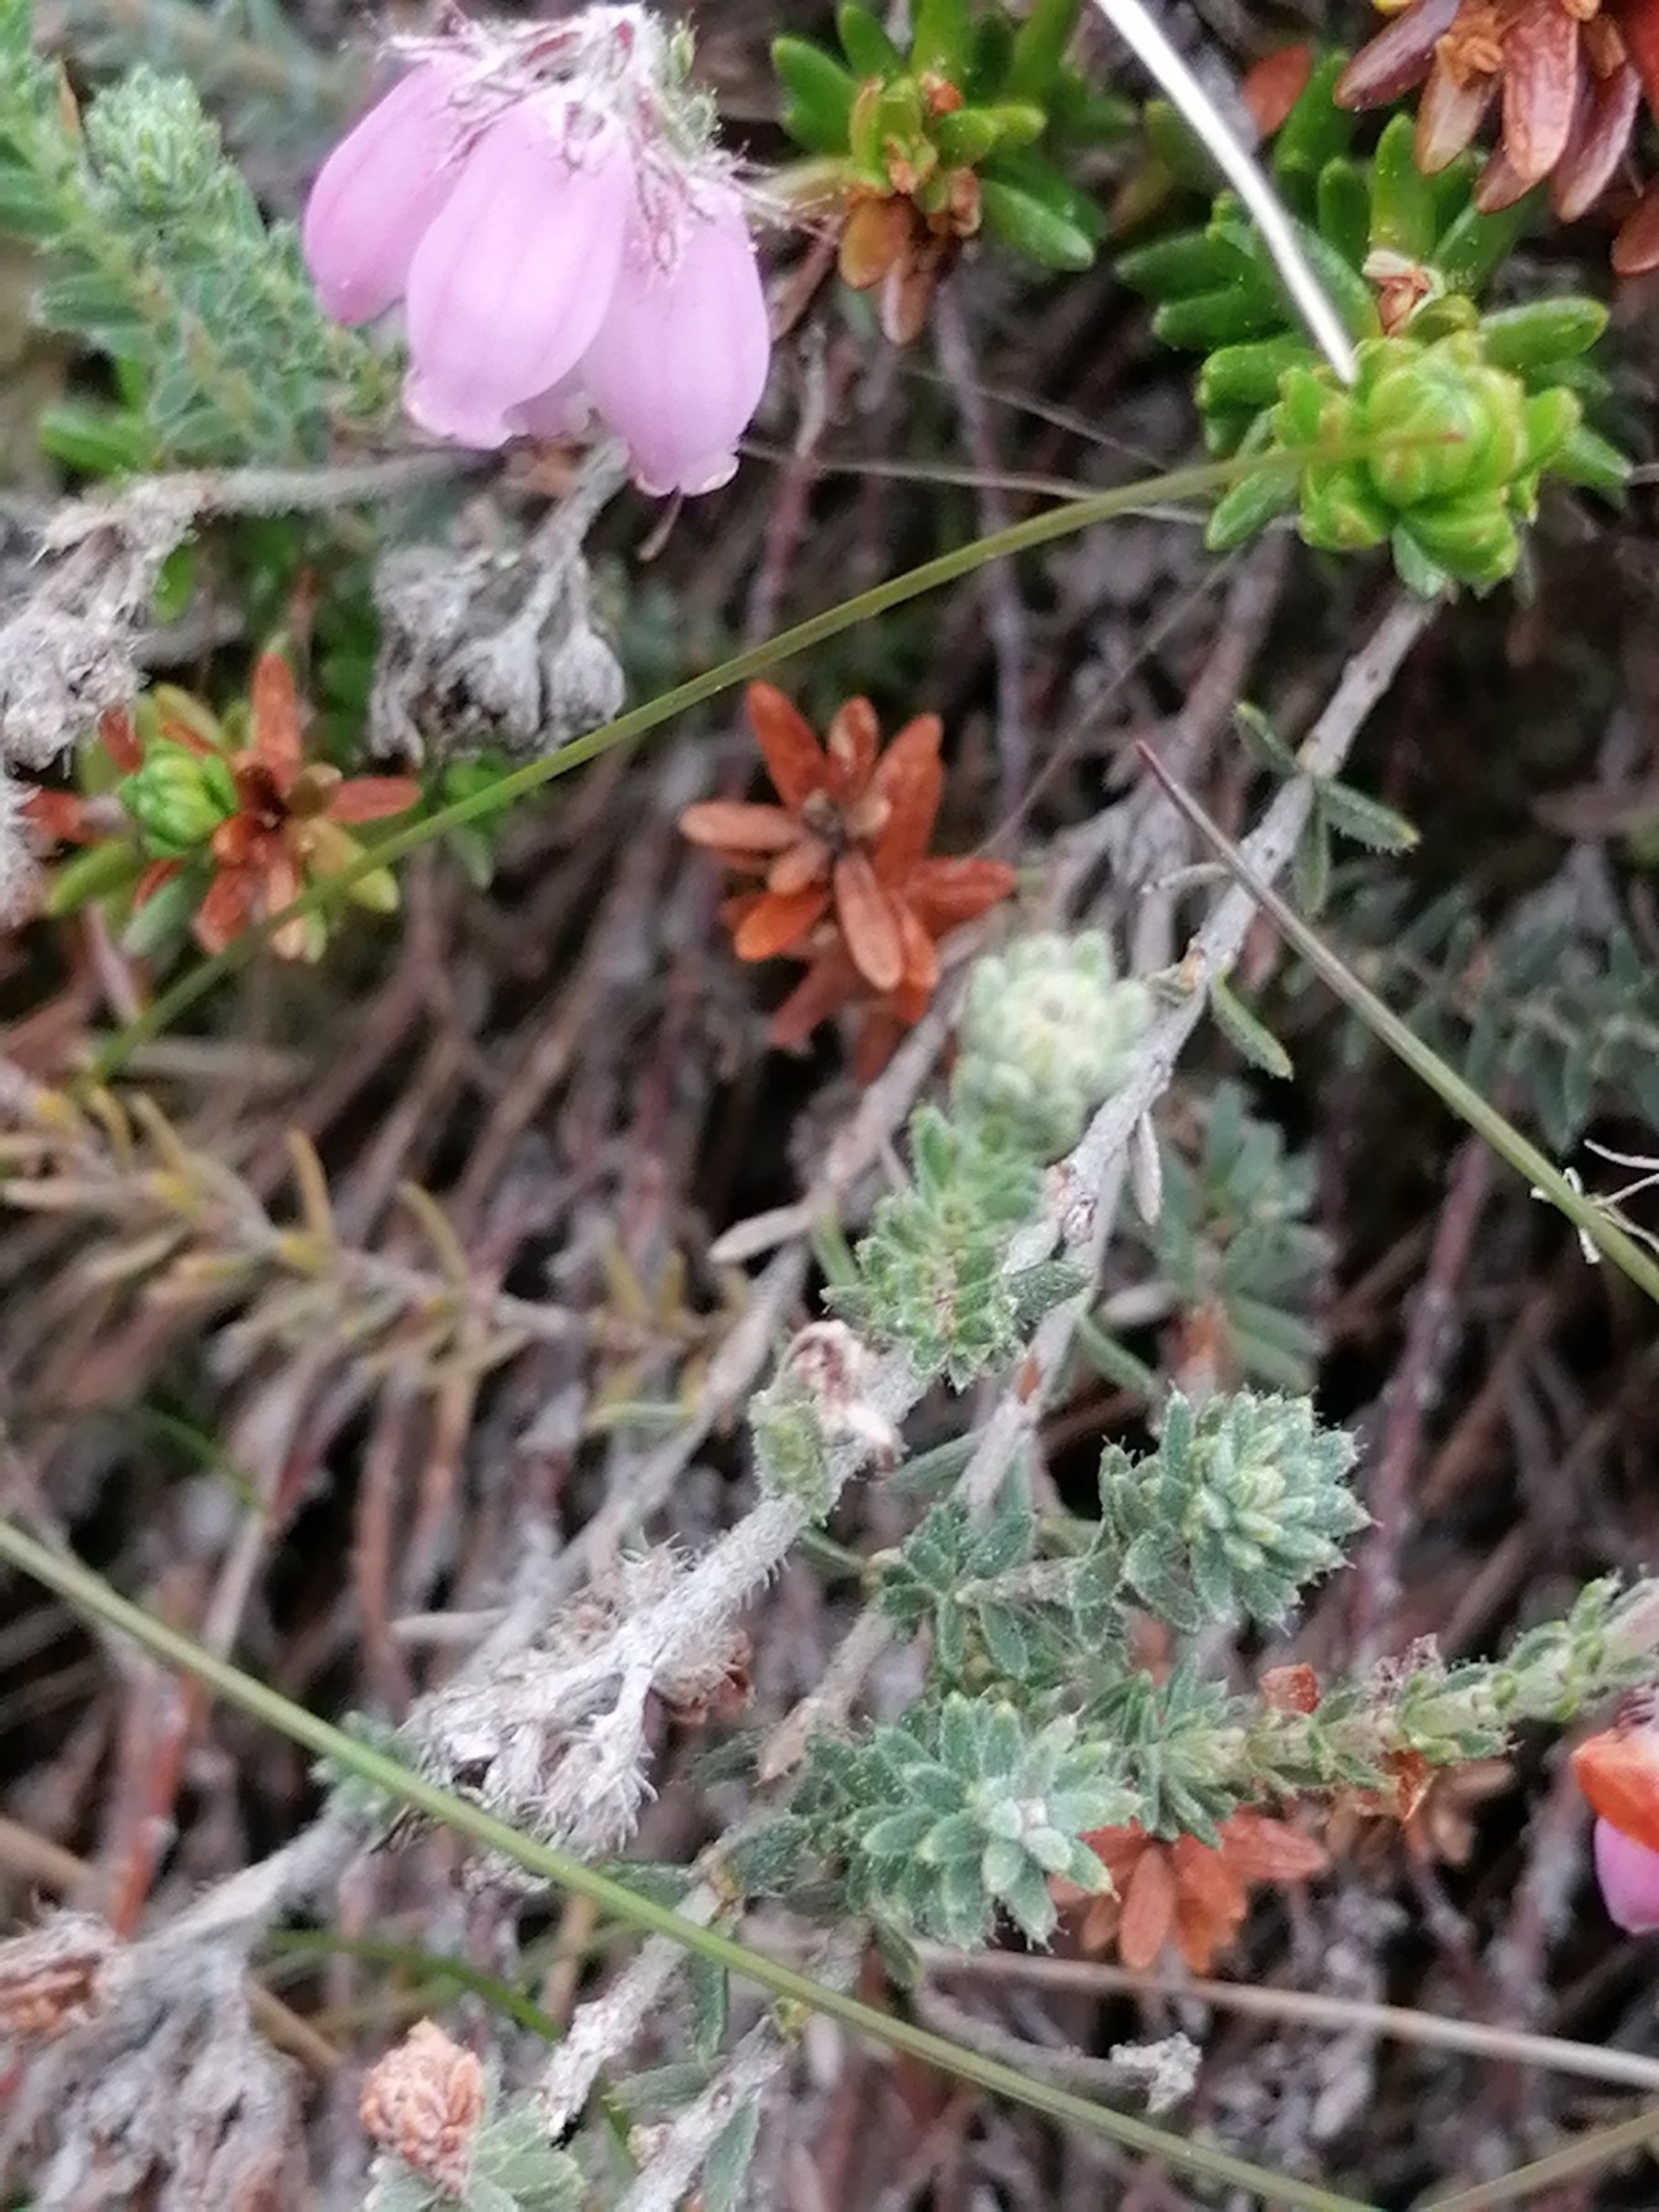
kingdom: Plantae
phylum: Tracheophyta
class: Magnoliopsida
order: Ericales
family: Ericaceae
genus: Erica
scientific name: Erica tetralix
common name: Klokkelyng
